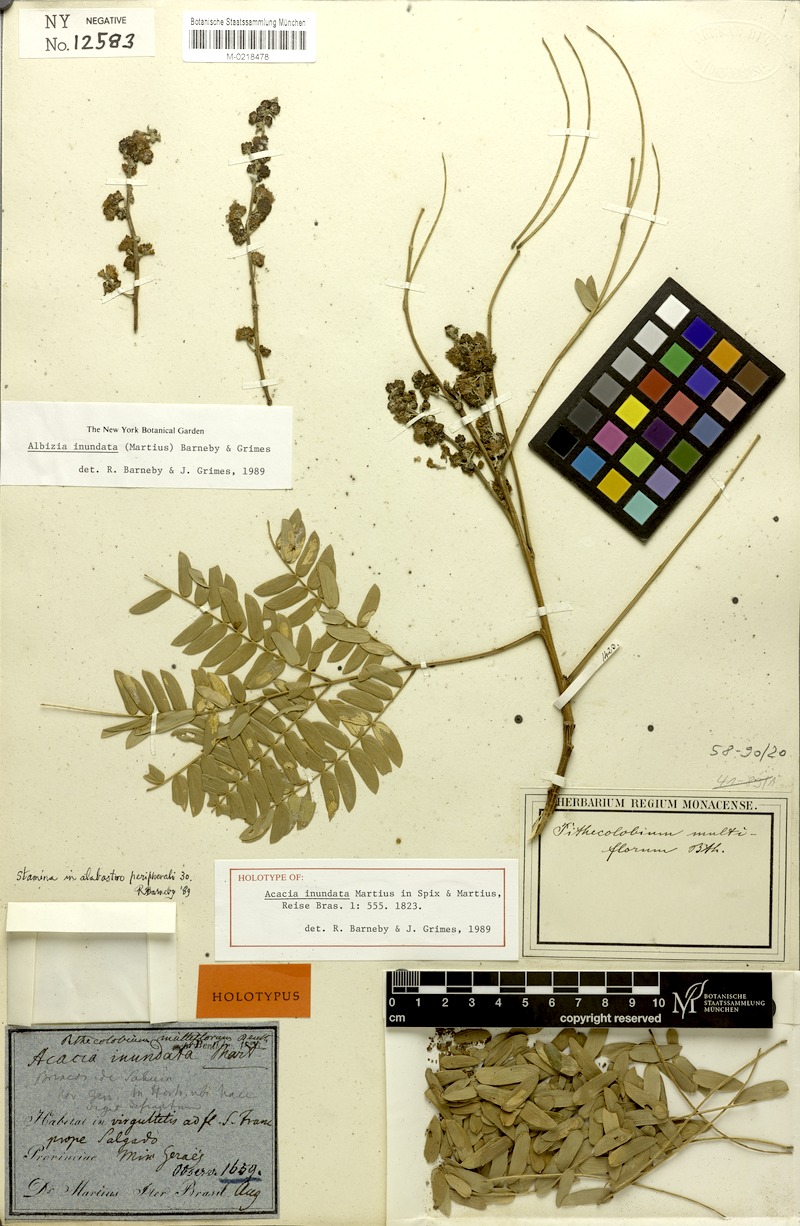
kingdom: Plantae
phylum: Tracheophyta
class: Magnoliopsida
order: Fabales
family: Fabaceae
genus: Albizia
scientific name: Albizia inundata
